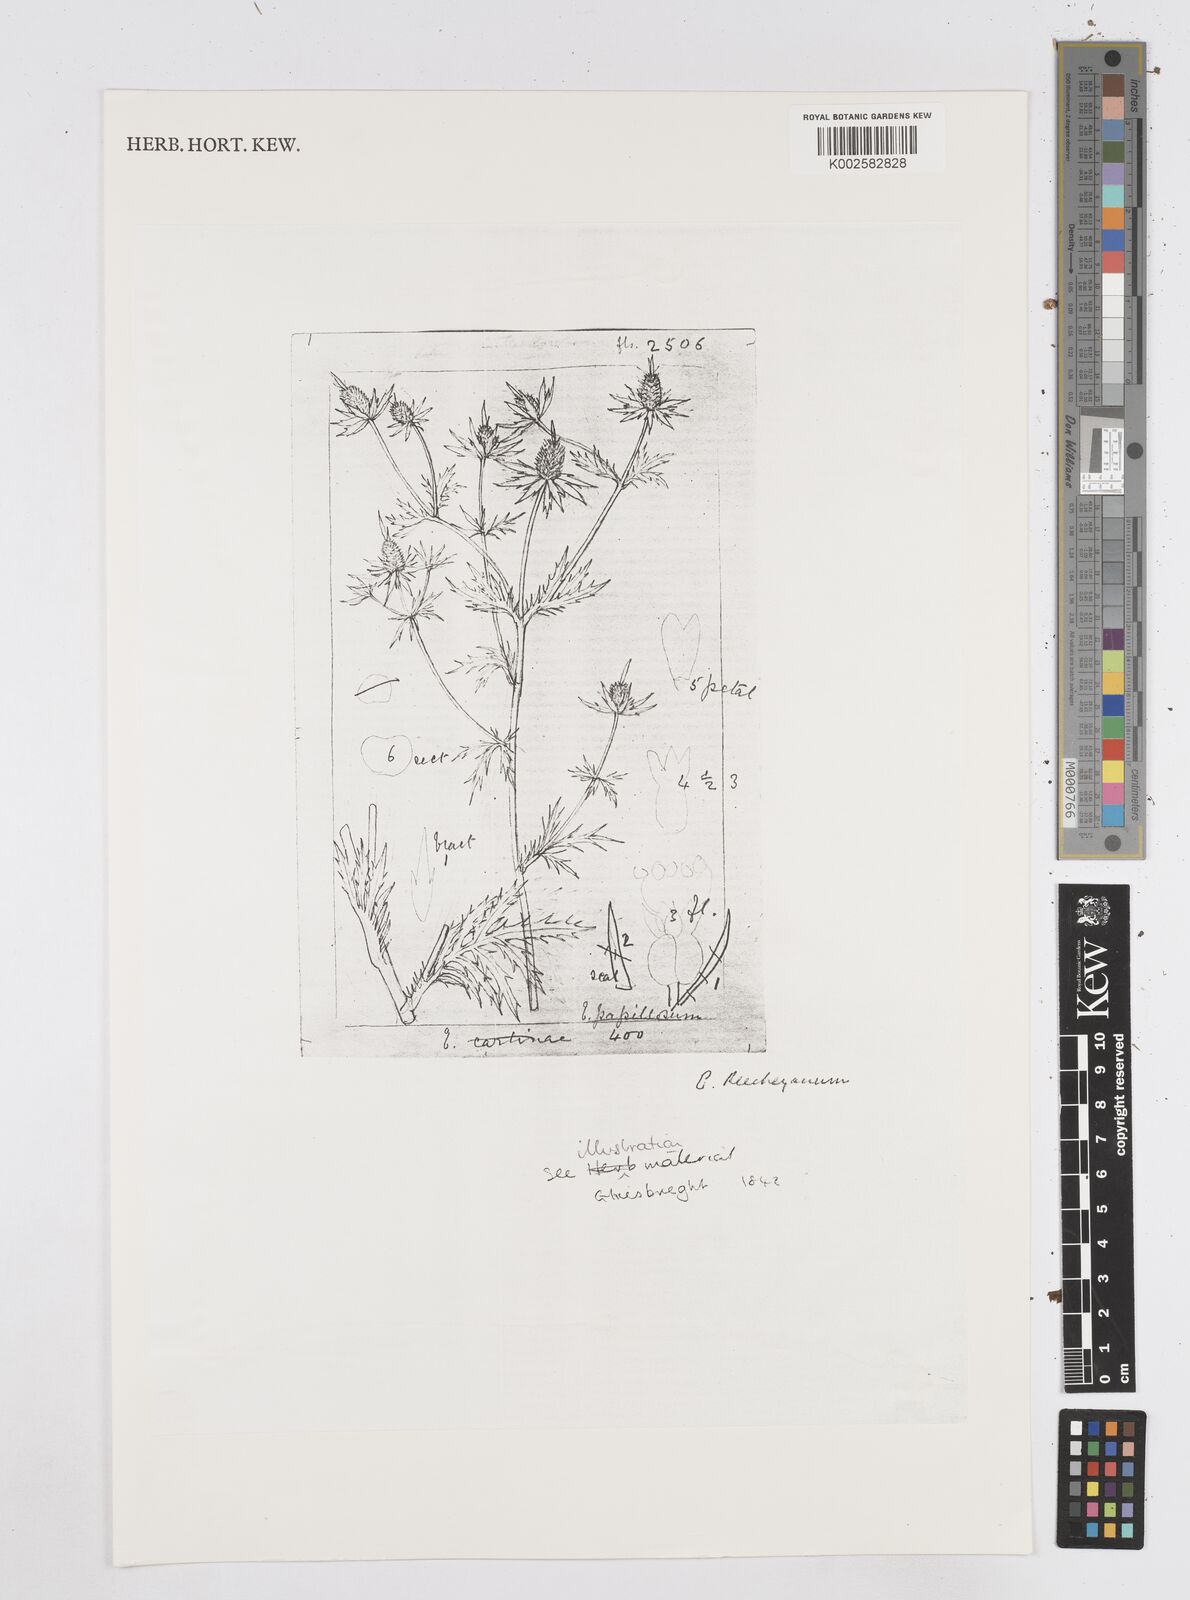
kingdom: Plantae
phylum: Tracheophyta
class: Magnoliopsida
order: Apiales
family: Apiaceae
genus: Eryngium
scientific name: Eryngium beecheyanum
